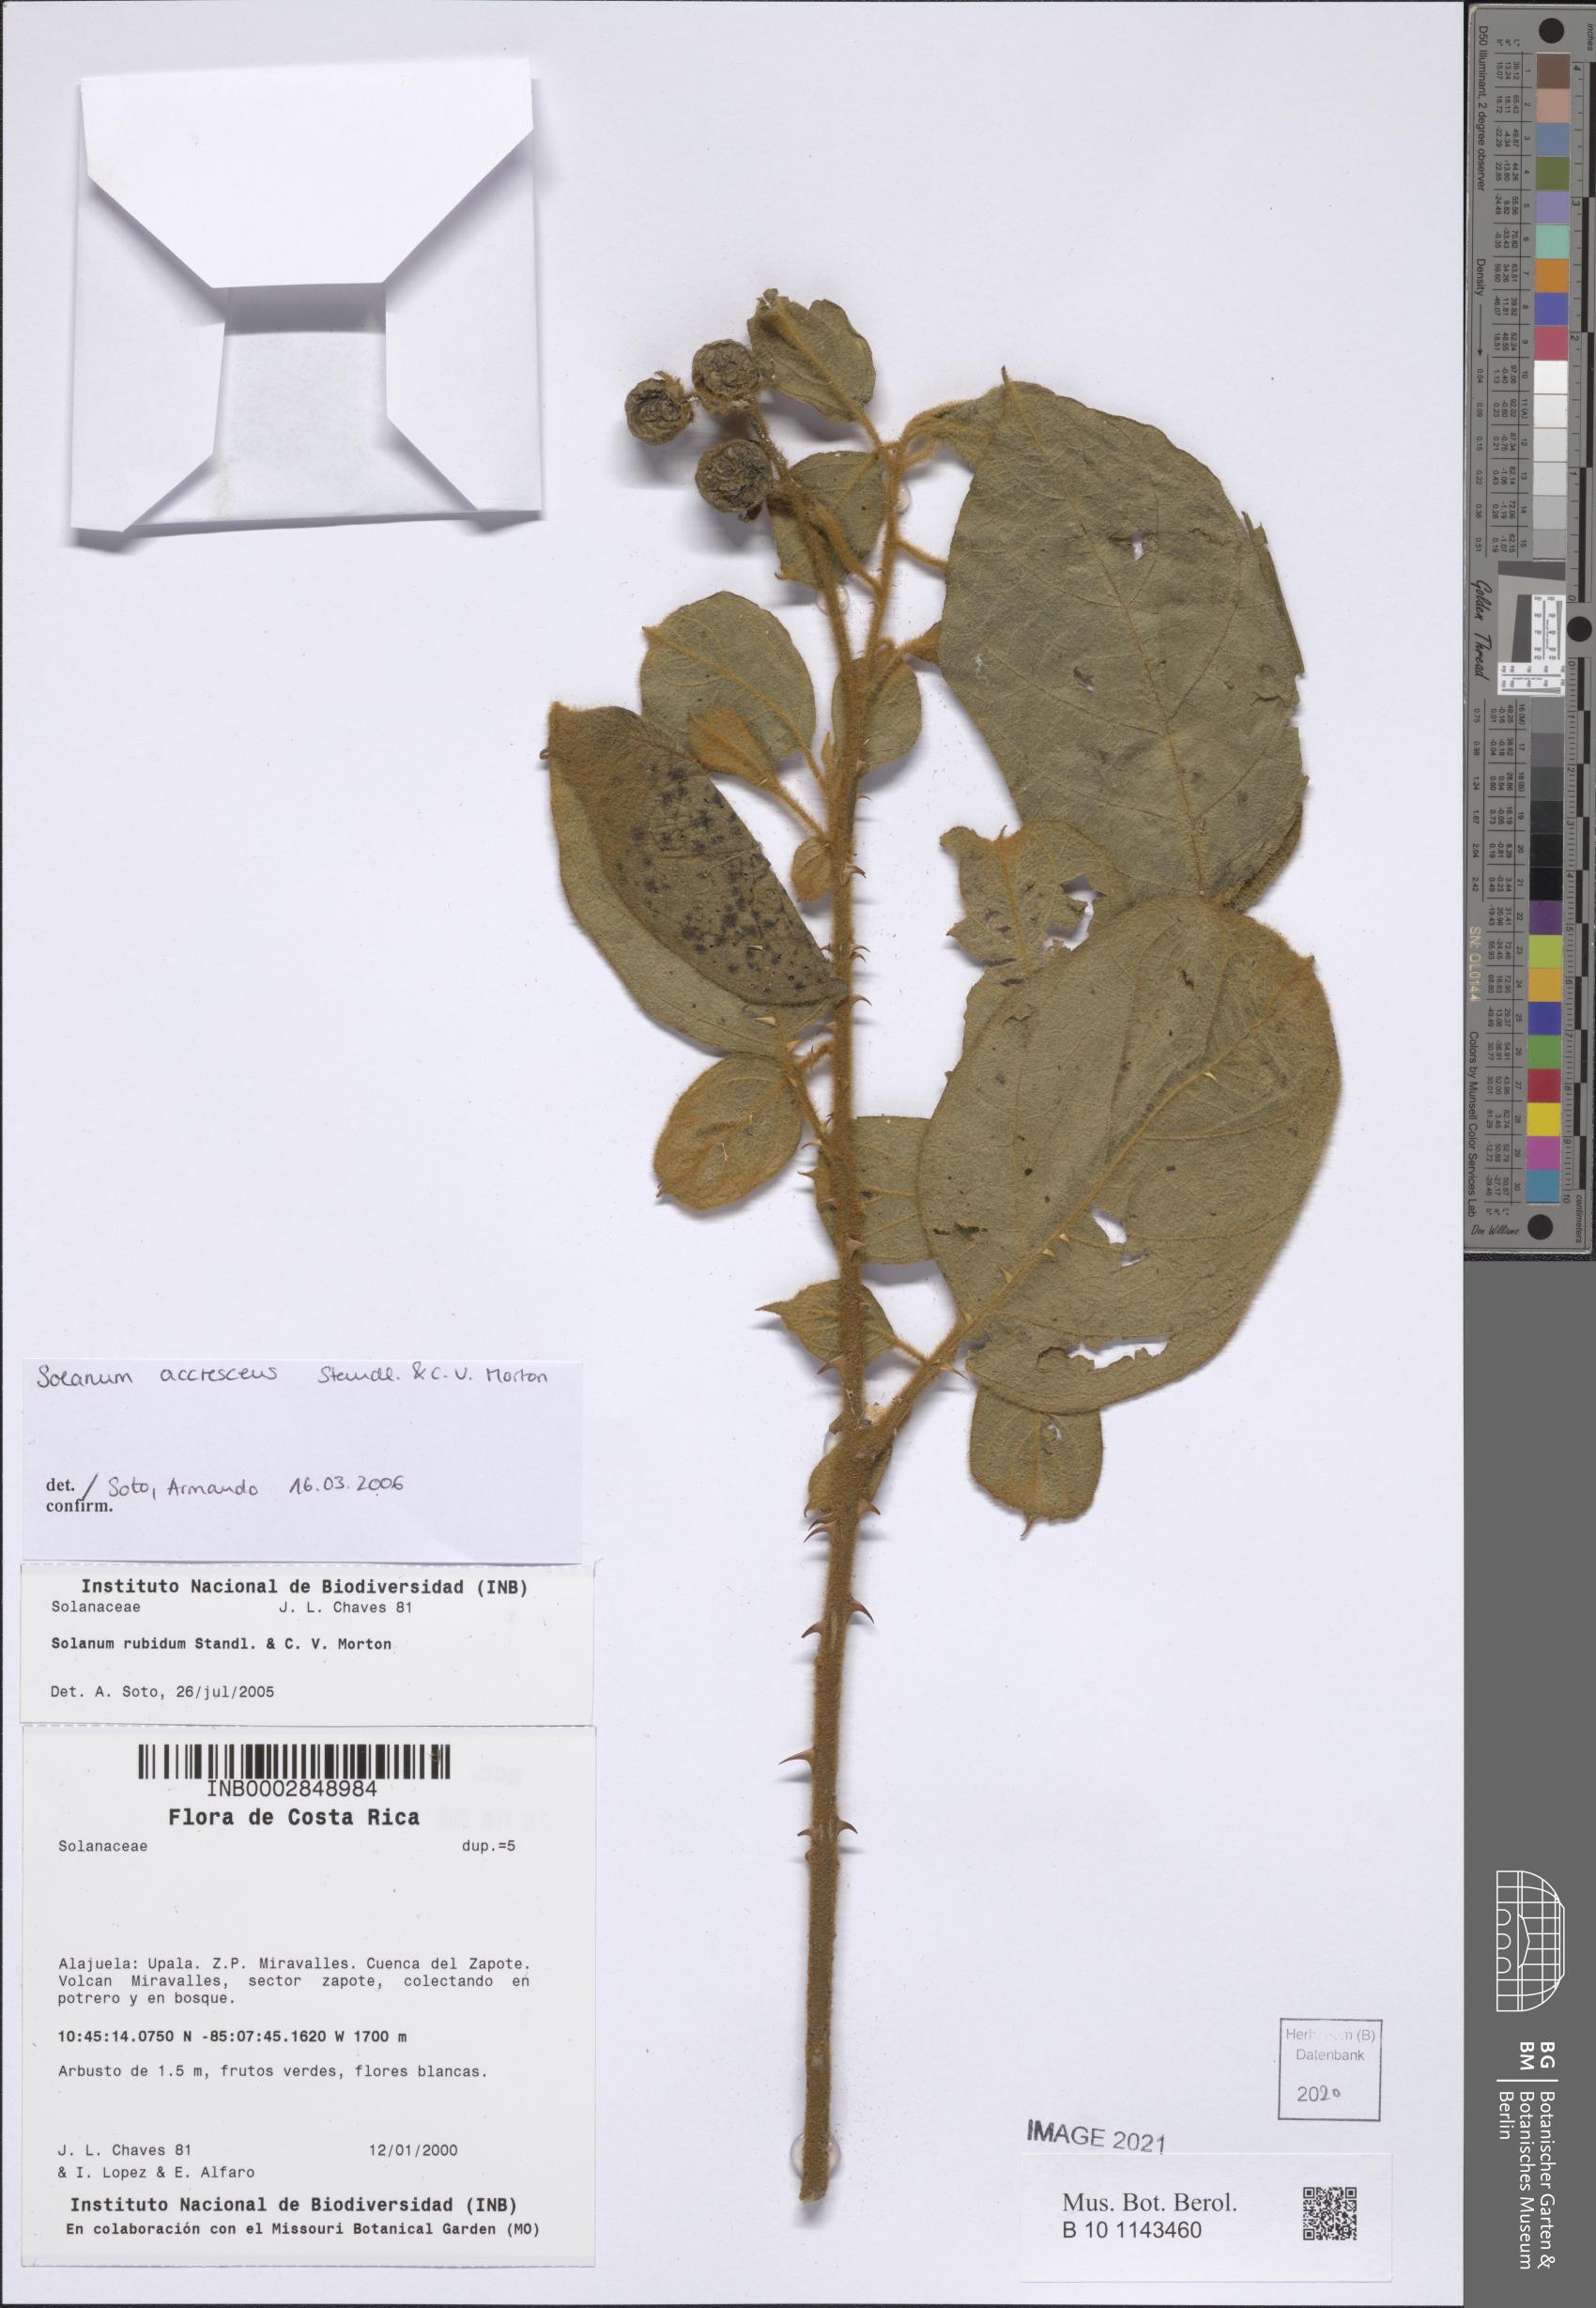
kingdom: Plantae
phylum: Tracheophyta
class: Magnoliopsida
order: Solanales
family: Solanaceae
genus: Solanum
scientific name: Solanum accrescens
